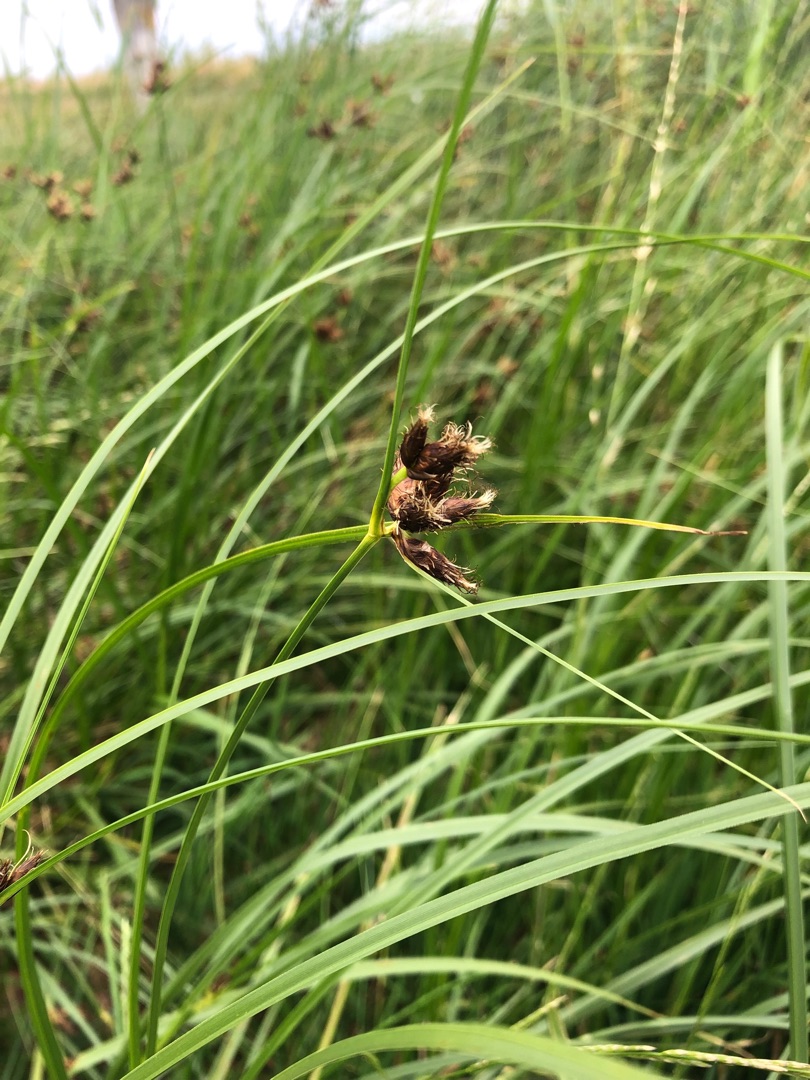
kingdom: Plantae
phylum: Tracheophyta
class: Liliopsida
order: Poales
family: Cyperaceae
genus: Bolboschoenus
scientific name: Bolboschoenus maritimus
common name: Strand-kogleaks
